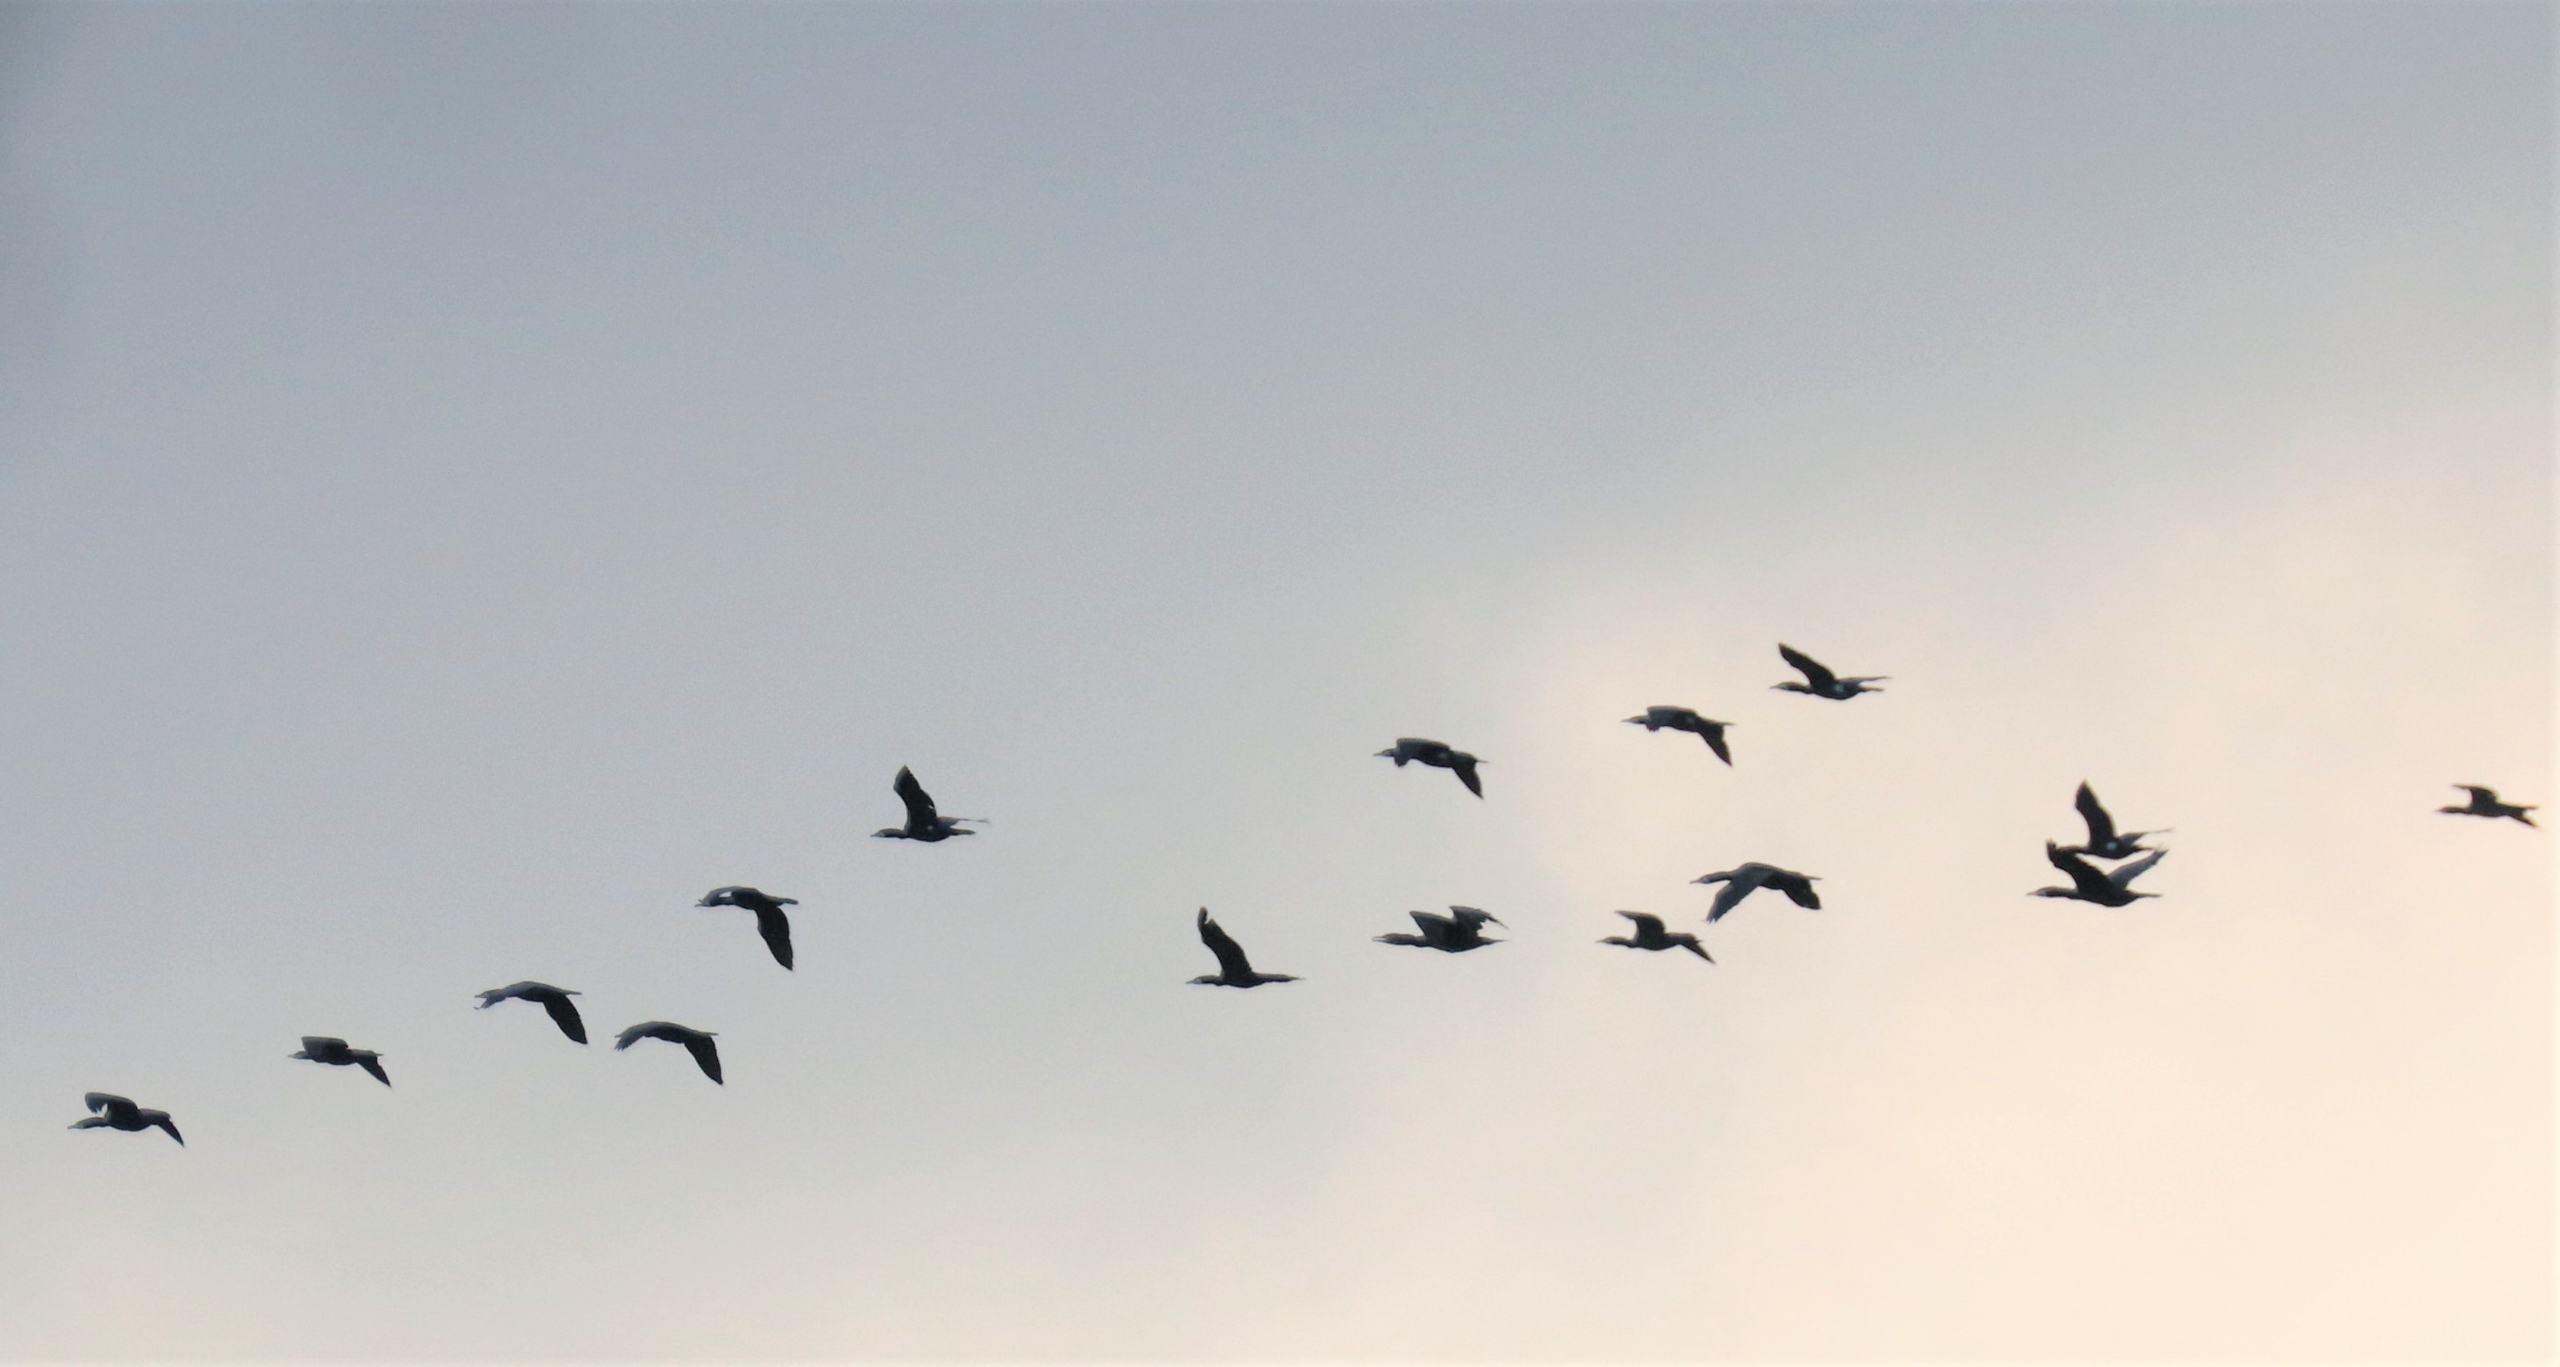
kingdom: Animalia
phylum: Chordata
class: Aves
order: Suliformes
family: Phalacrocoracidae
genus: Phalacrocorax
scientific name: Phalacrocorax carbo
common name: Skarv
